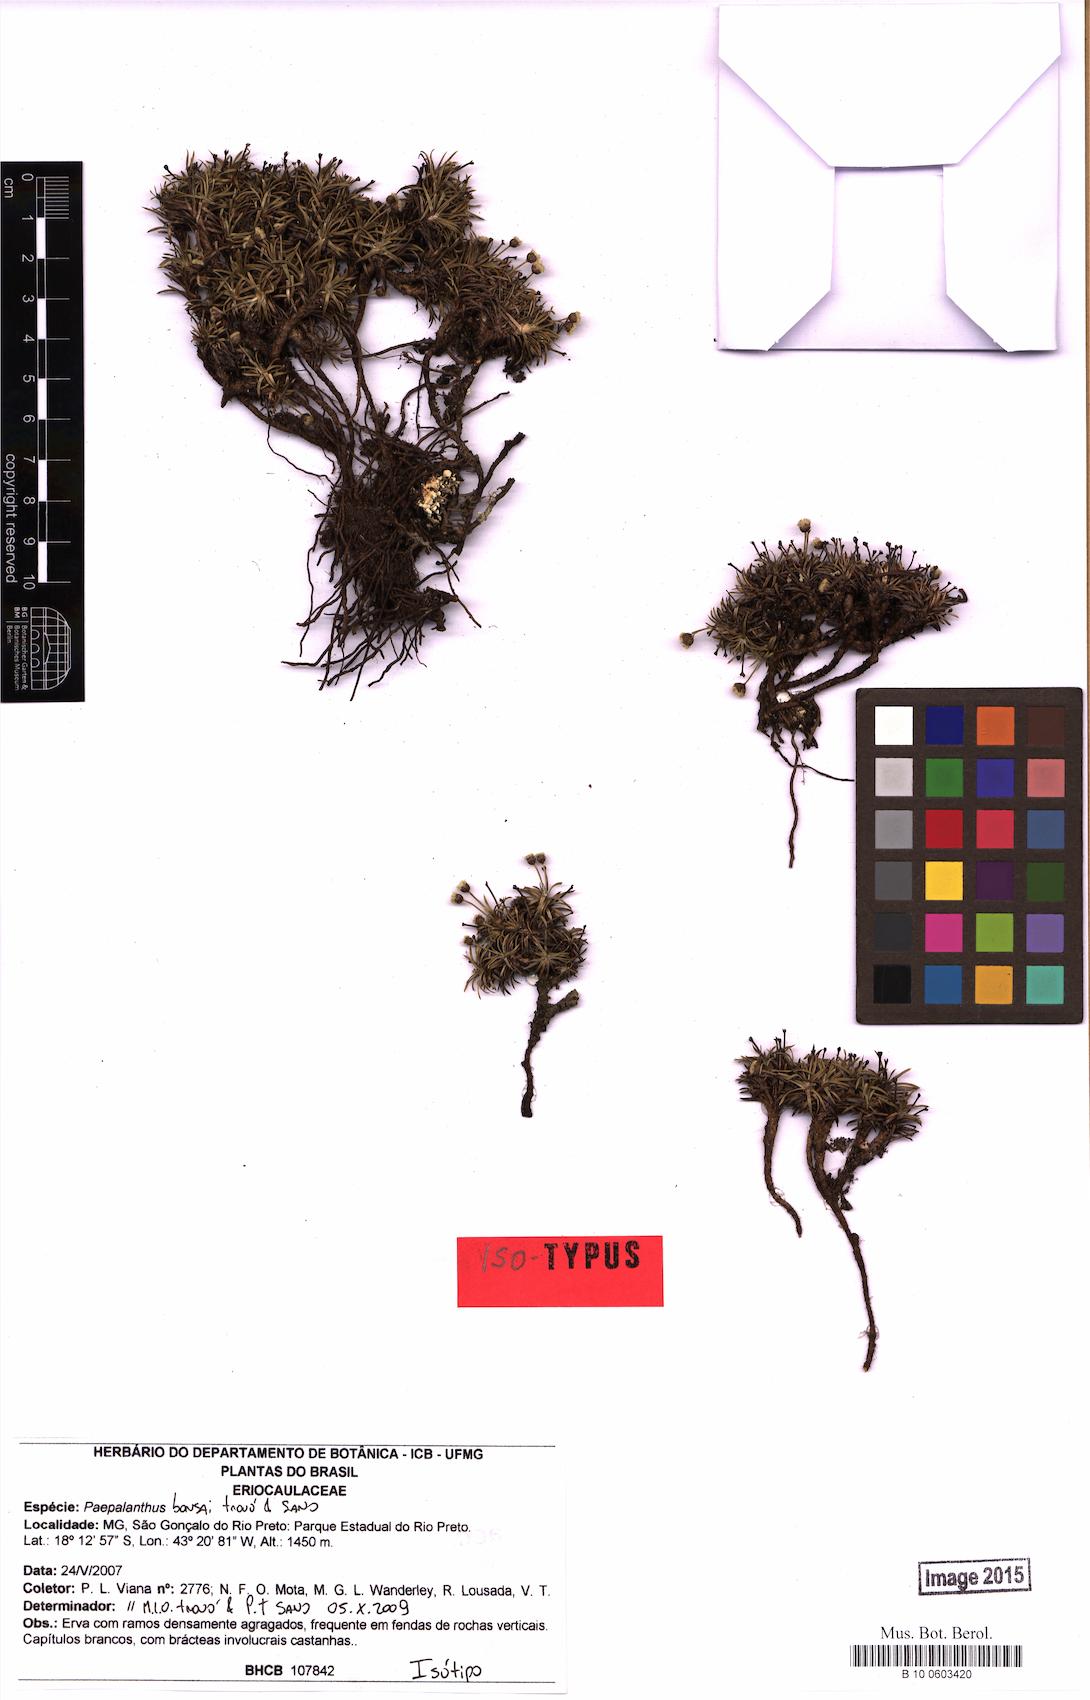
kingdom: Plantae
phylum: Tracheophyta
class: Liliopsida
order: Poales
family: Eriocaulaceae
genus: Paepalanthus
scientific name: Paepalanthus bonsai
